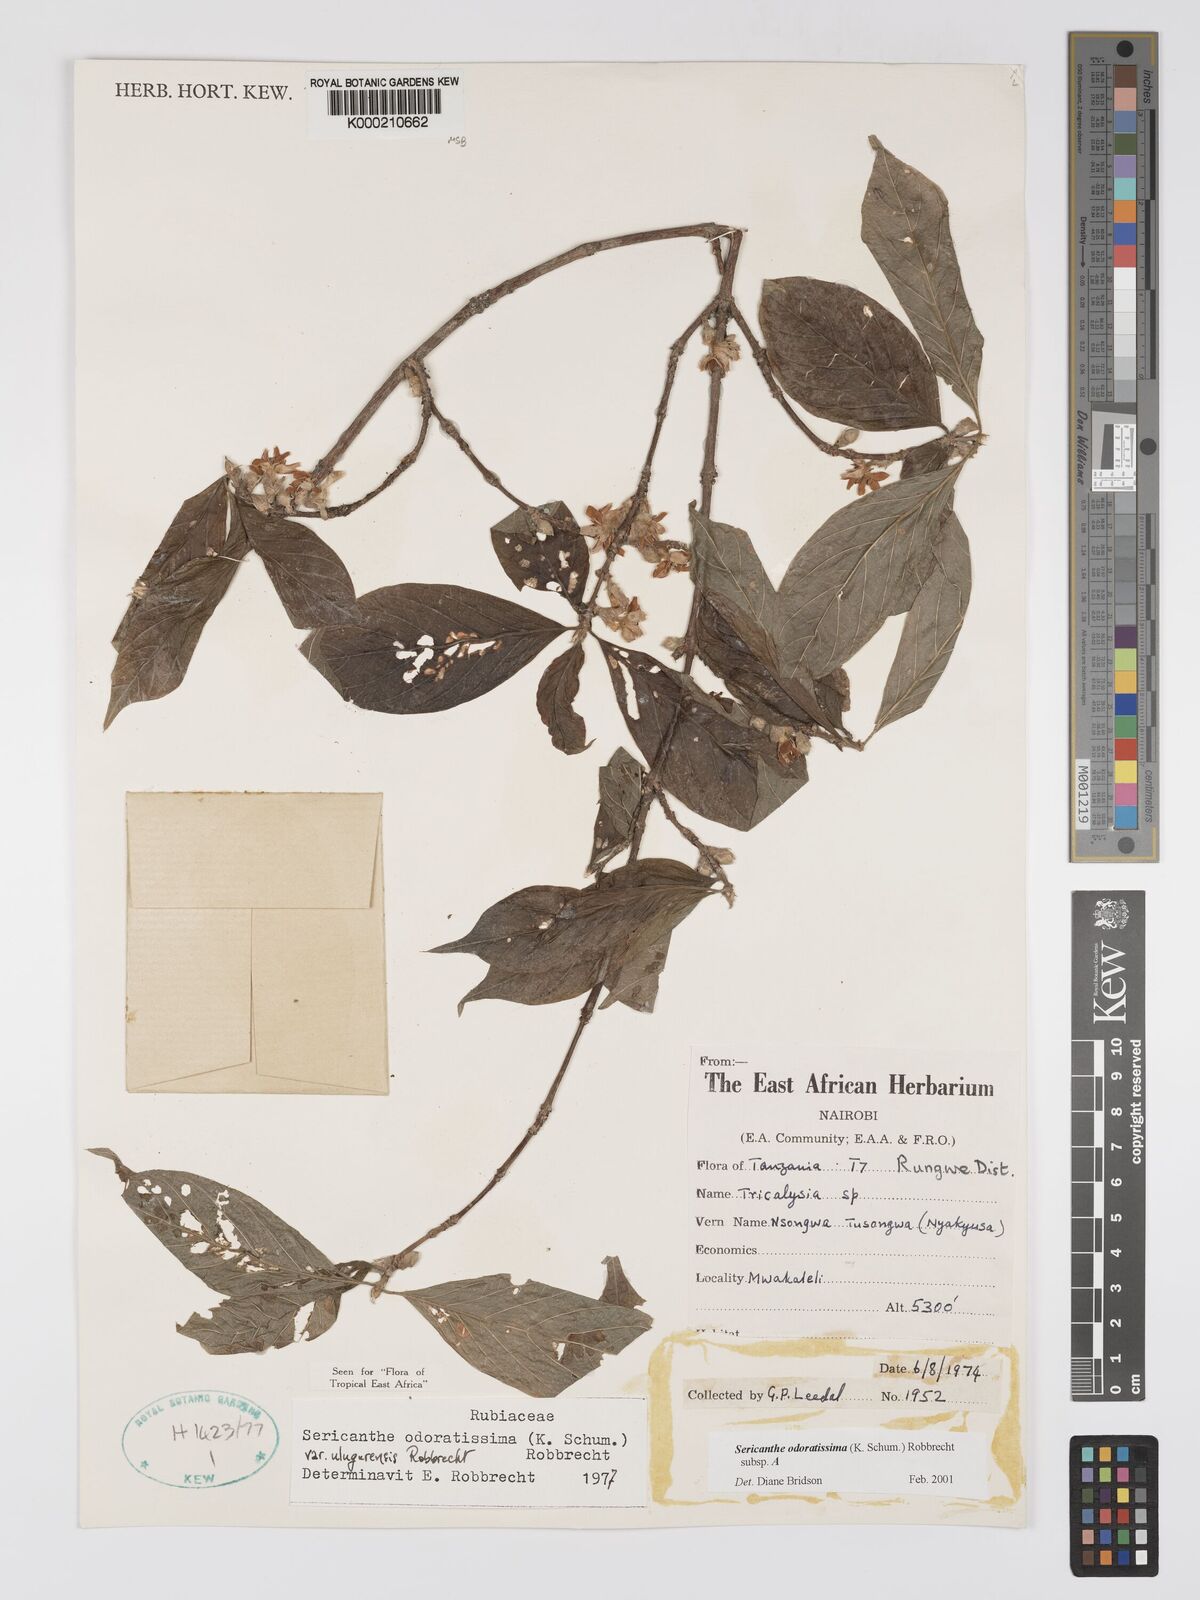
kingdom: Plantae
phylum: Tracheophyta
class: Magnoliopsida
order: Gentianales
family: Rubiaceae
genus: Sericanthe
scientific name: Sericanthe odoratissima
